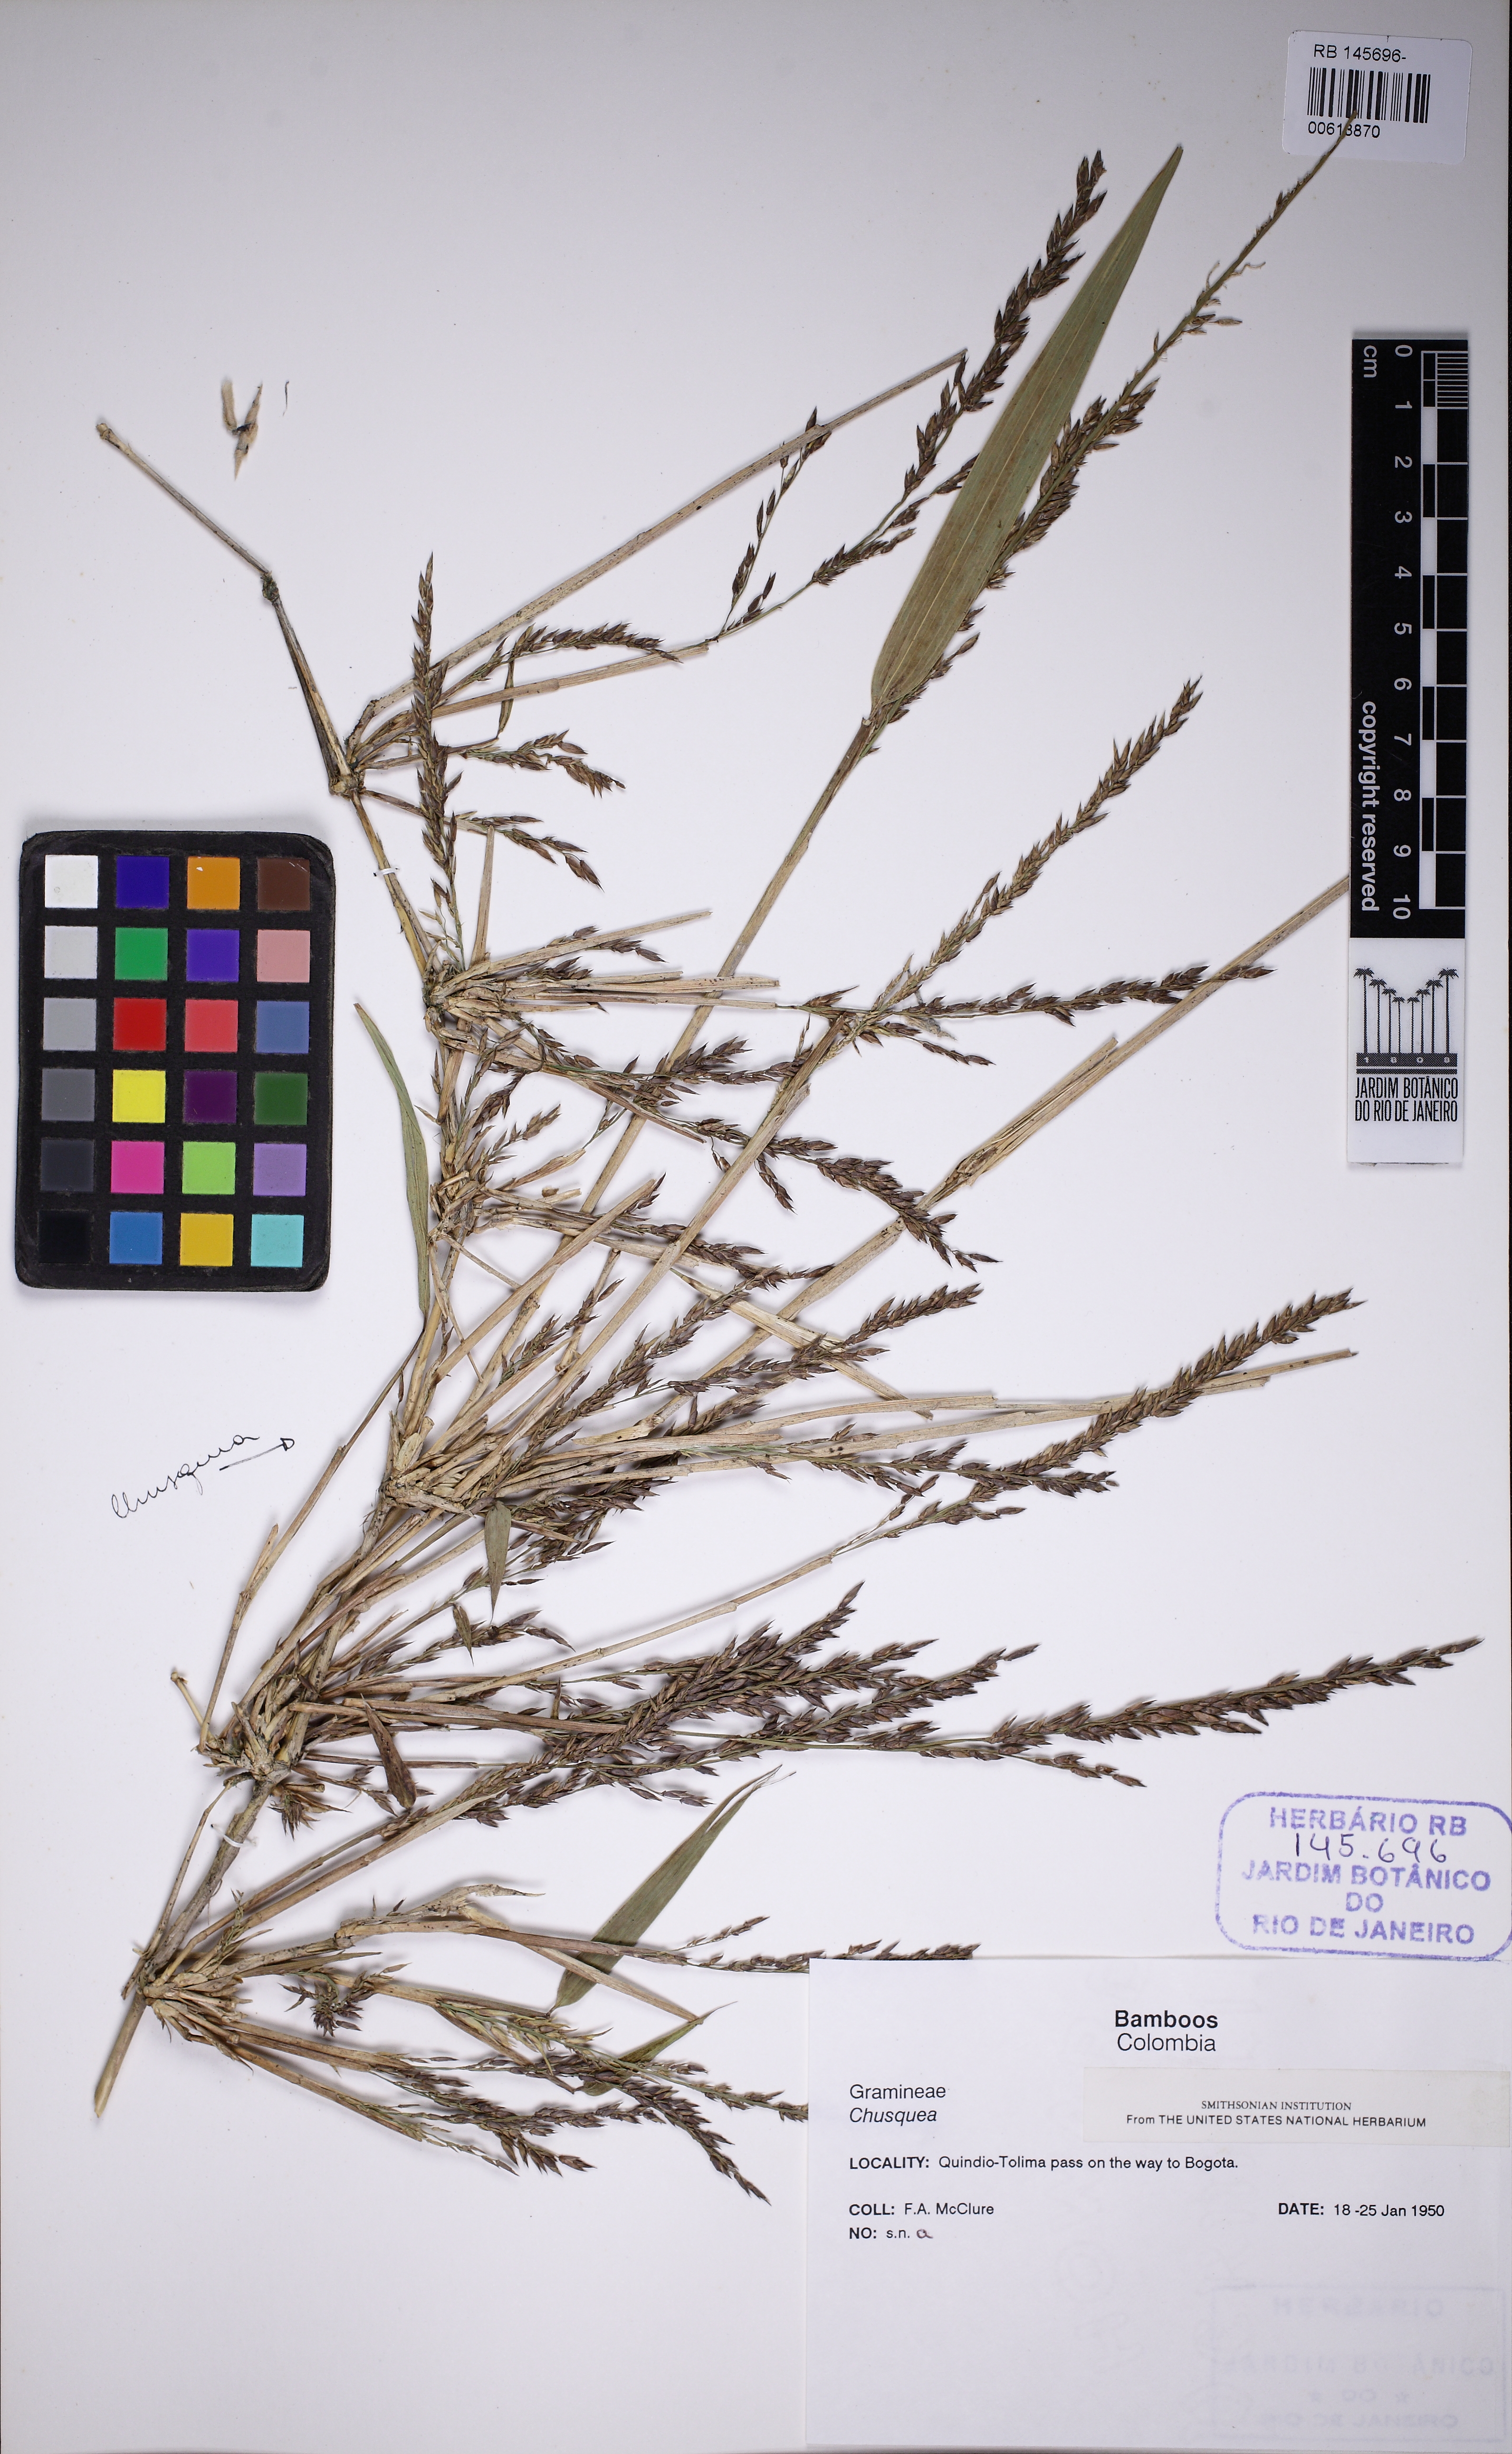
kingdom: Plantae
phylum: Tracheophyta
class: Liliopsida
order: Poales
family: Poaceae
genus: Chusquea
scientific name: Chusquea
